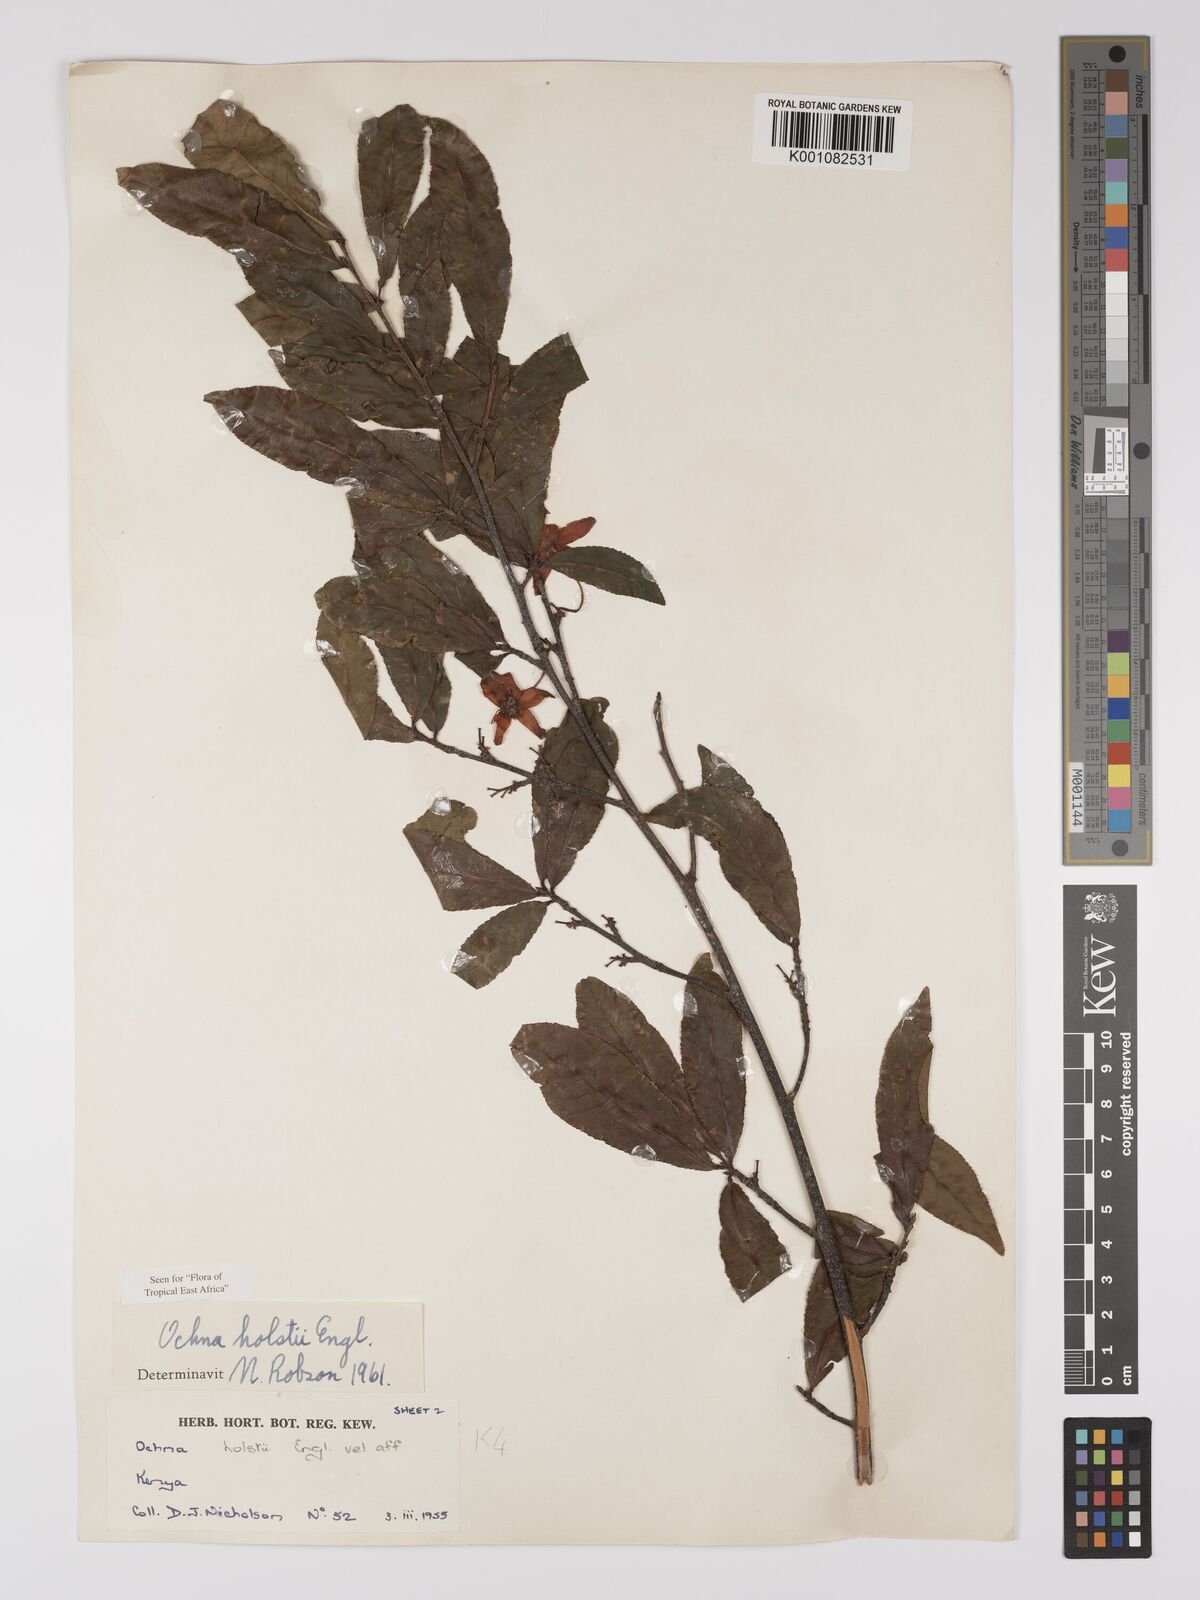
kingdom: Plantae
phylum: Tracheophyta
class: Magnoliopsida
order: Malpighiales
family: Ochnaceae
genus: Ochna
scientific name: Ochna holstii
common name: Red ironwood
